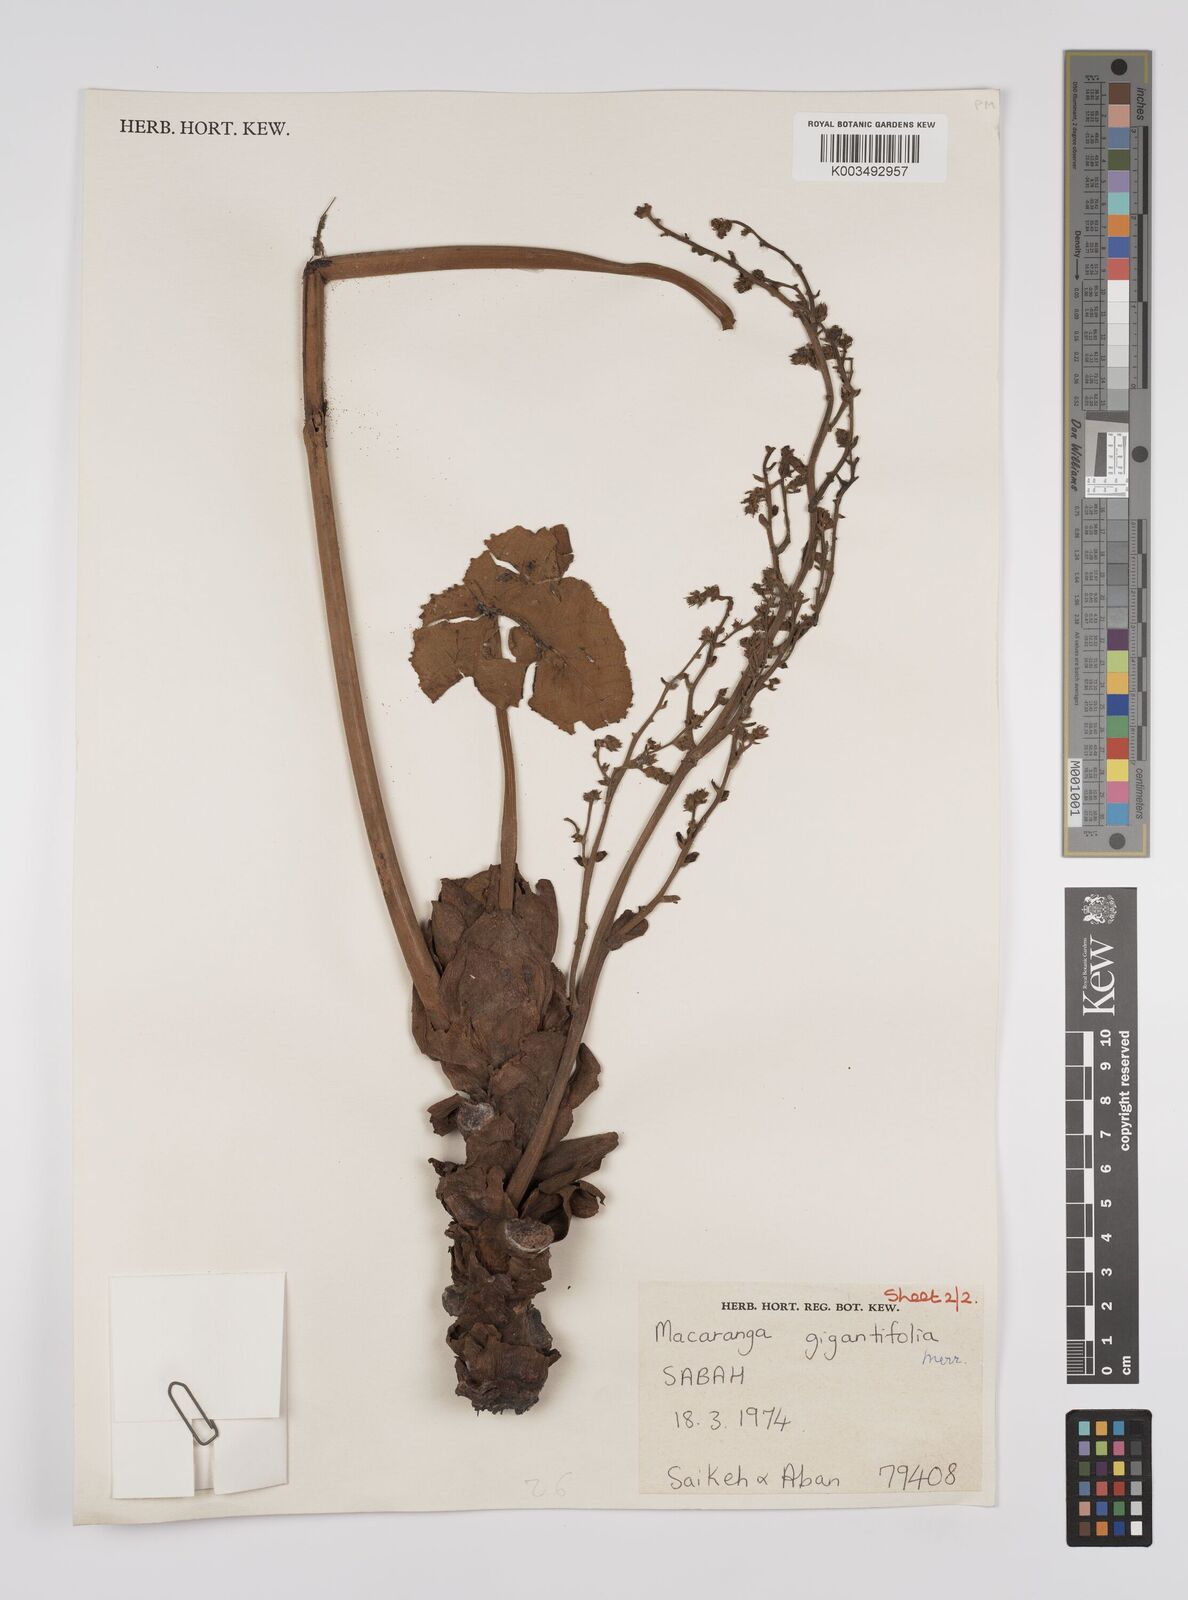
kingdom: Plantae
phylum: Tracheophyta
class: Magnoliopsida
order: Malpighiales
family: Euphorbiaceae
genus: Macaranga
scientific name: Macaranga gigantea
